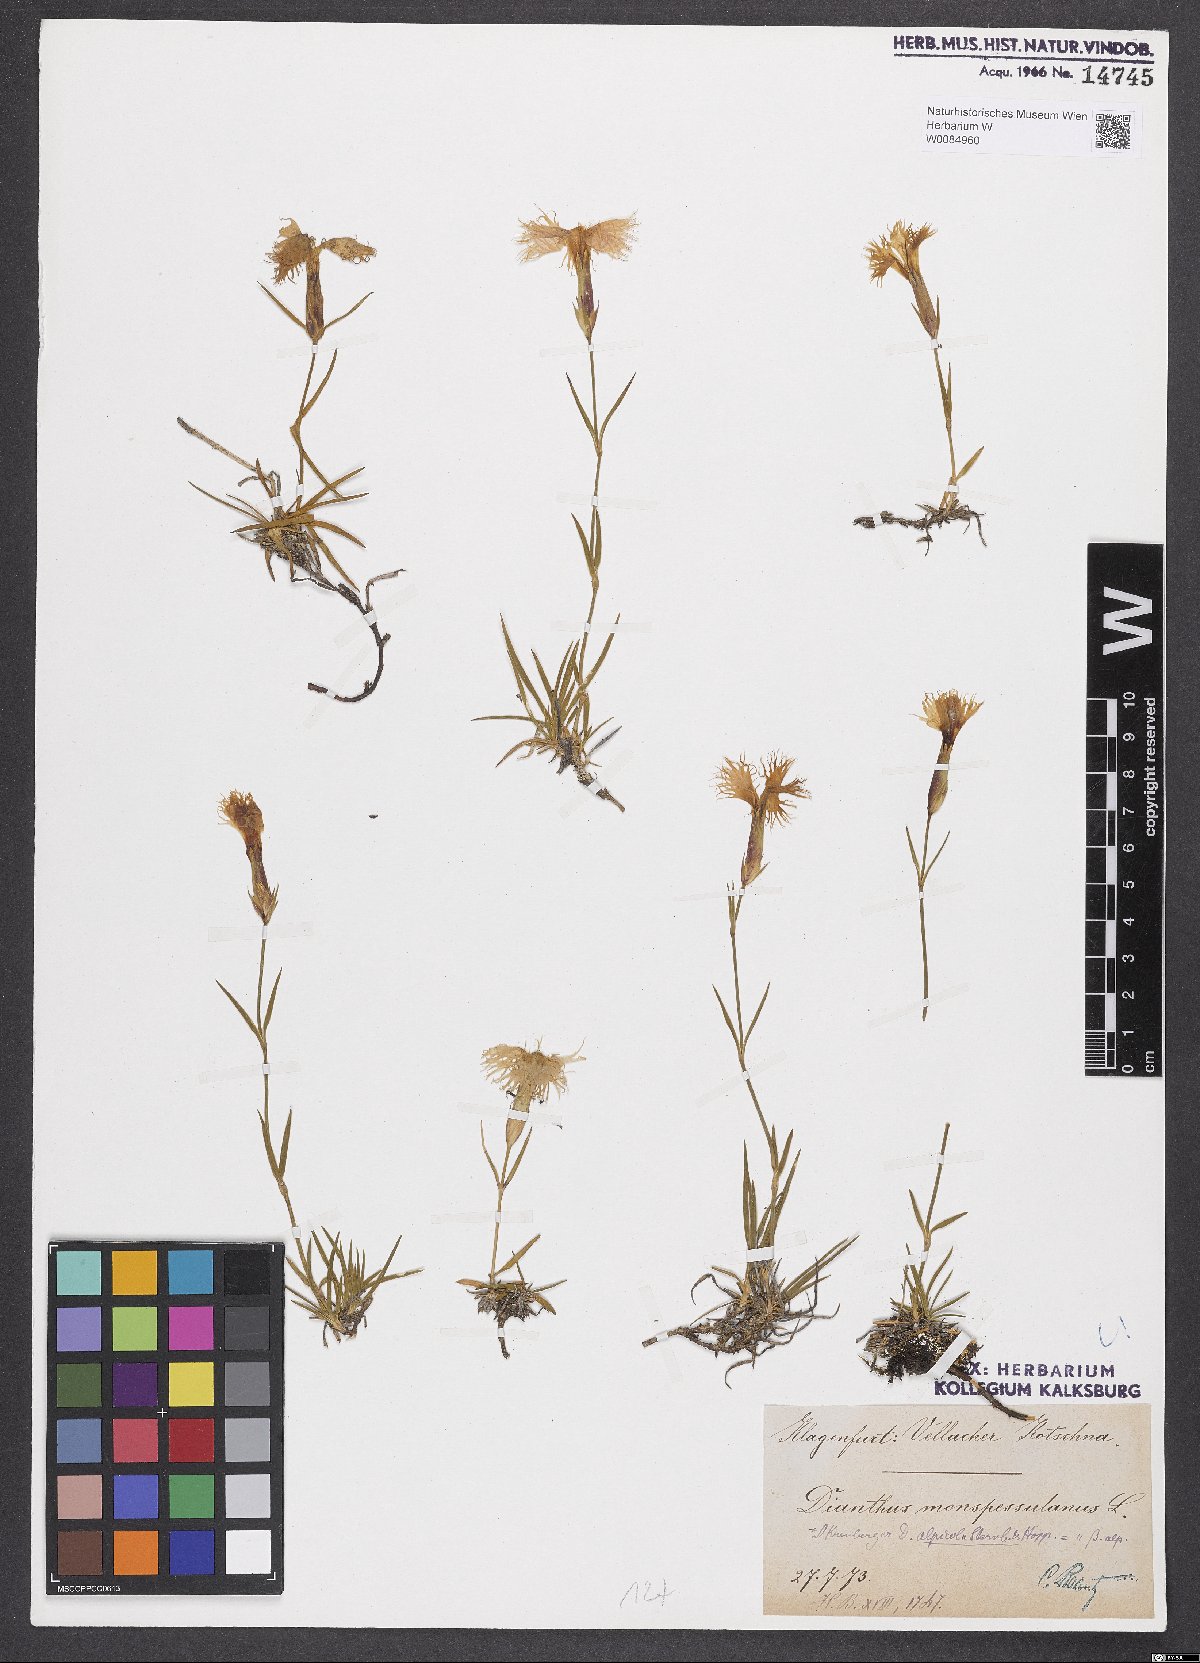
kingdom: Plantae
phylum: Tracheophyta
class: Magnoliopsida
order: Caryophyllales
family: Caryophyllaceae
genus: Dianthus
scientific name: Dianthus hyssopifolius
